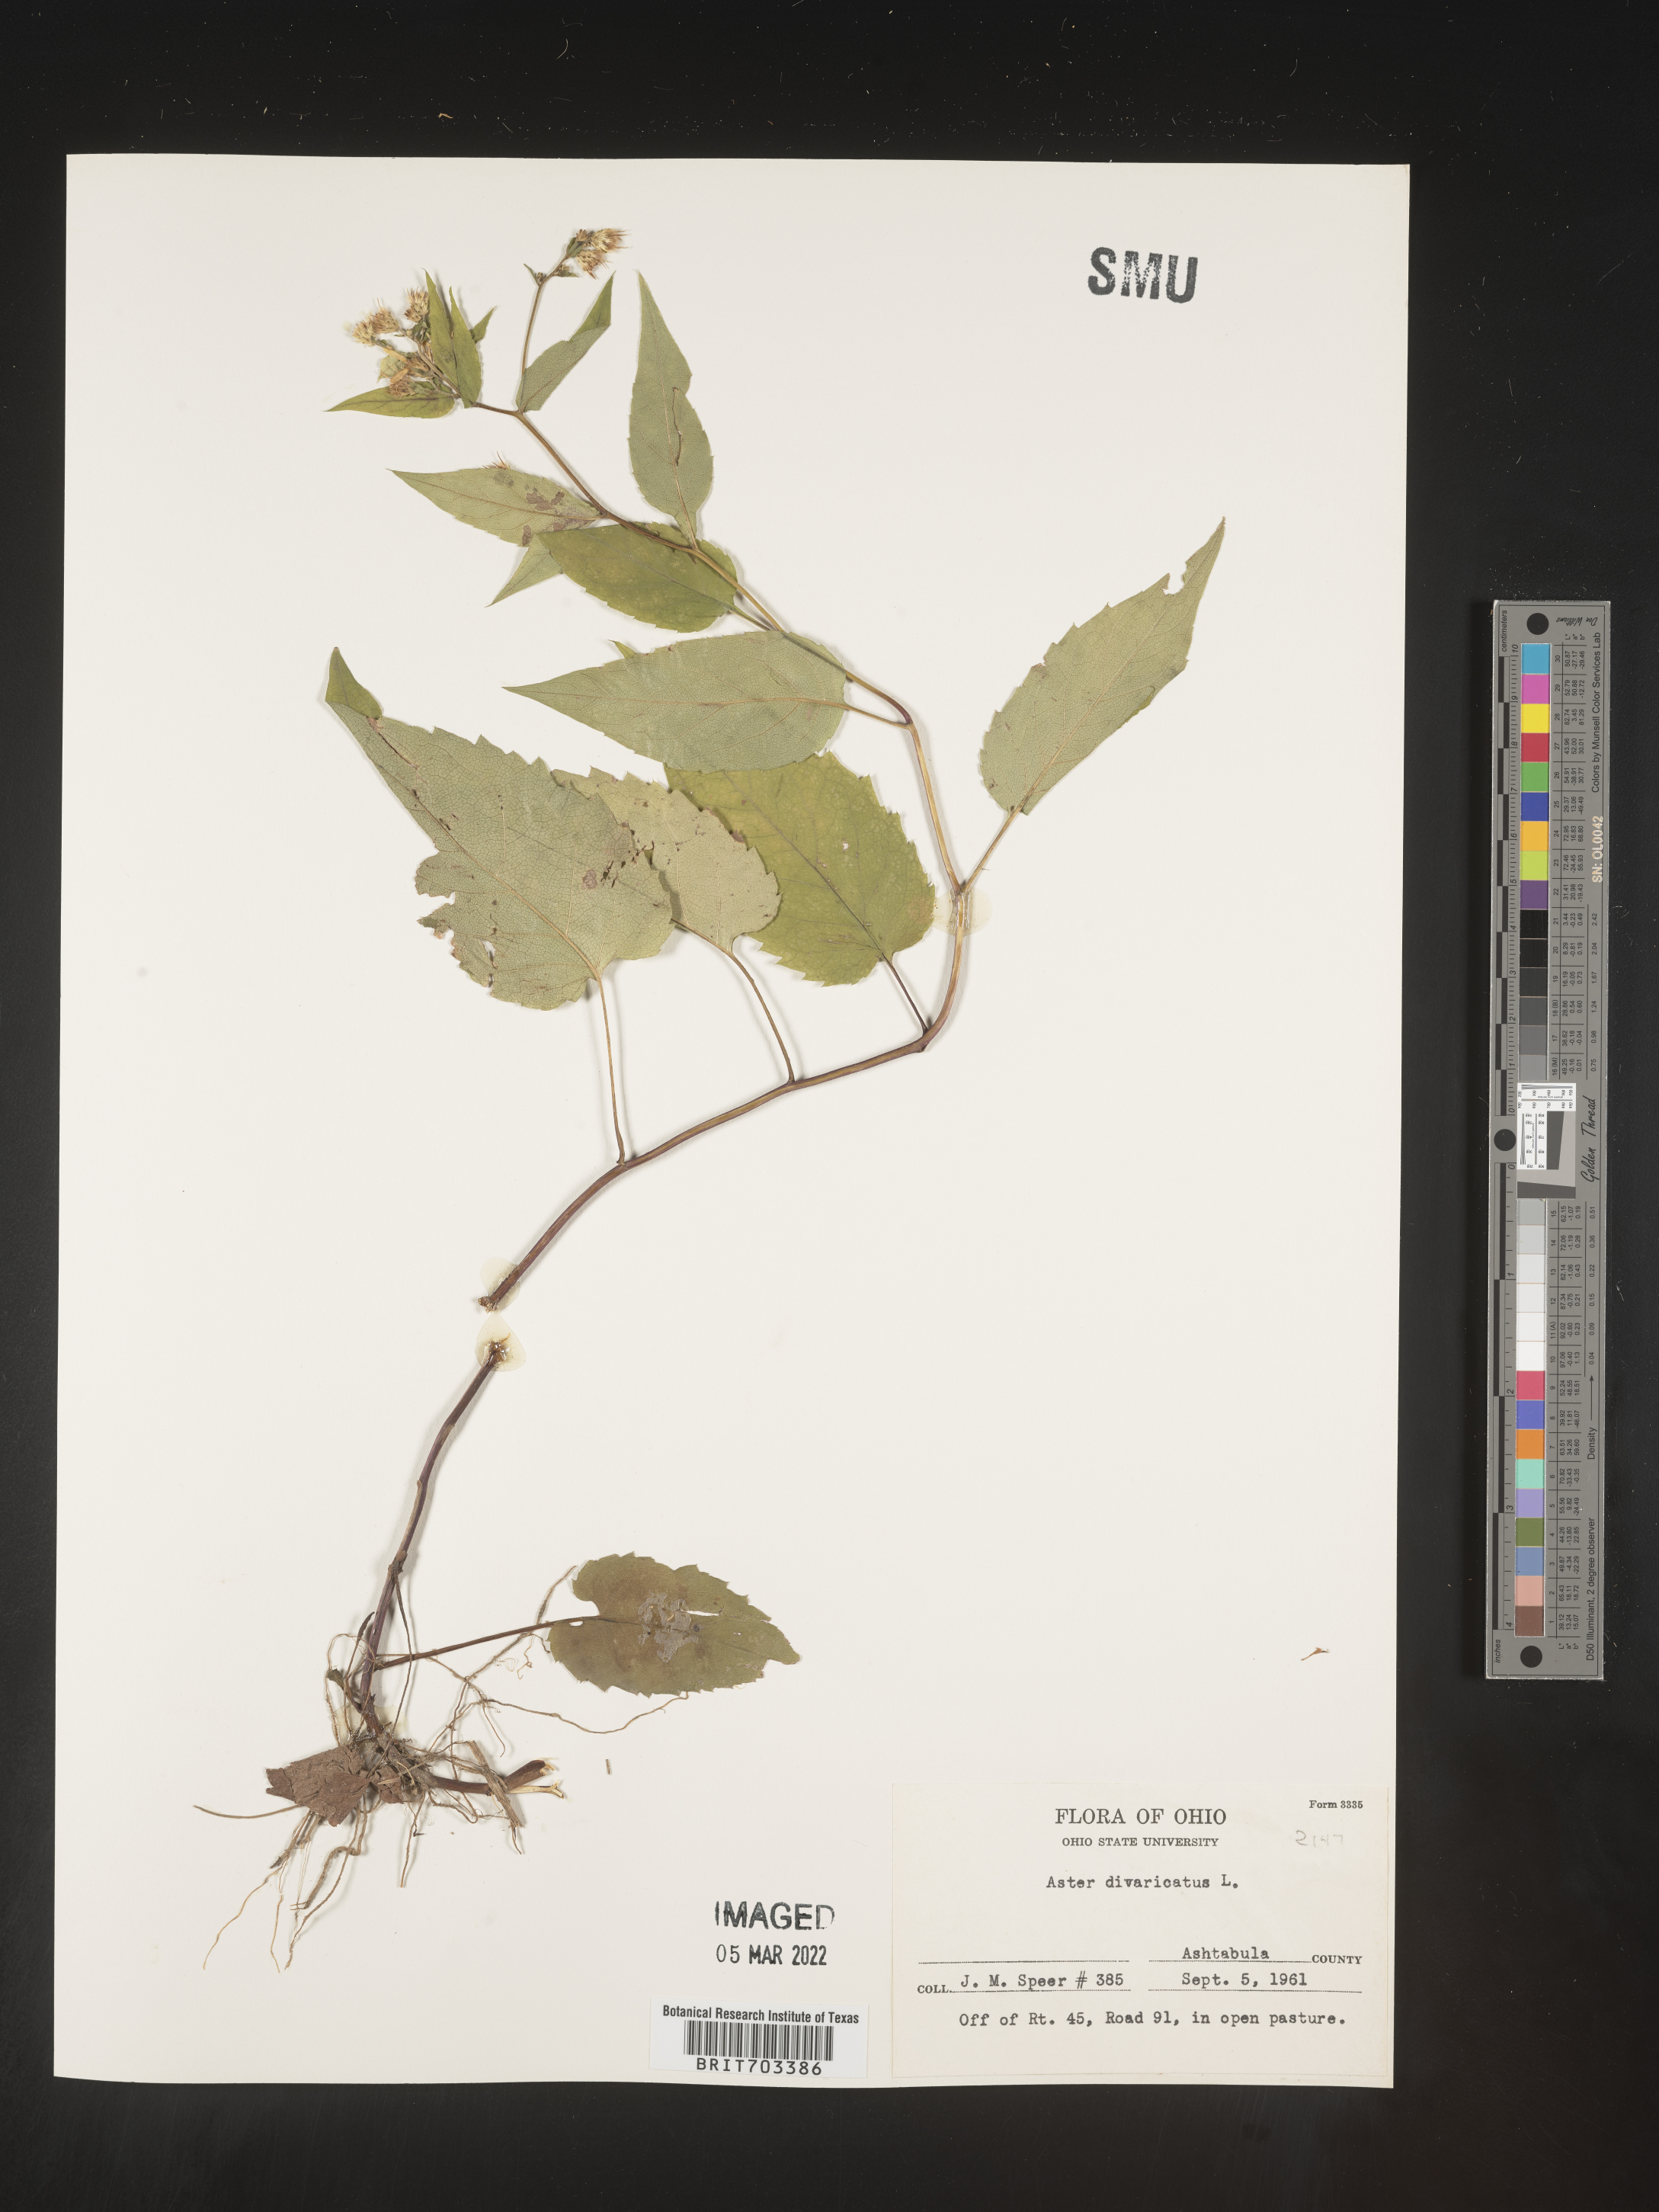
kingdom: Plantae
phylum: Tracheophyta
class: Magnoliopsida
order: Asterales
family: Asteraceae
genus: Eurybia
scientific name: Eurybia divaricata
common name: White wood aster
